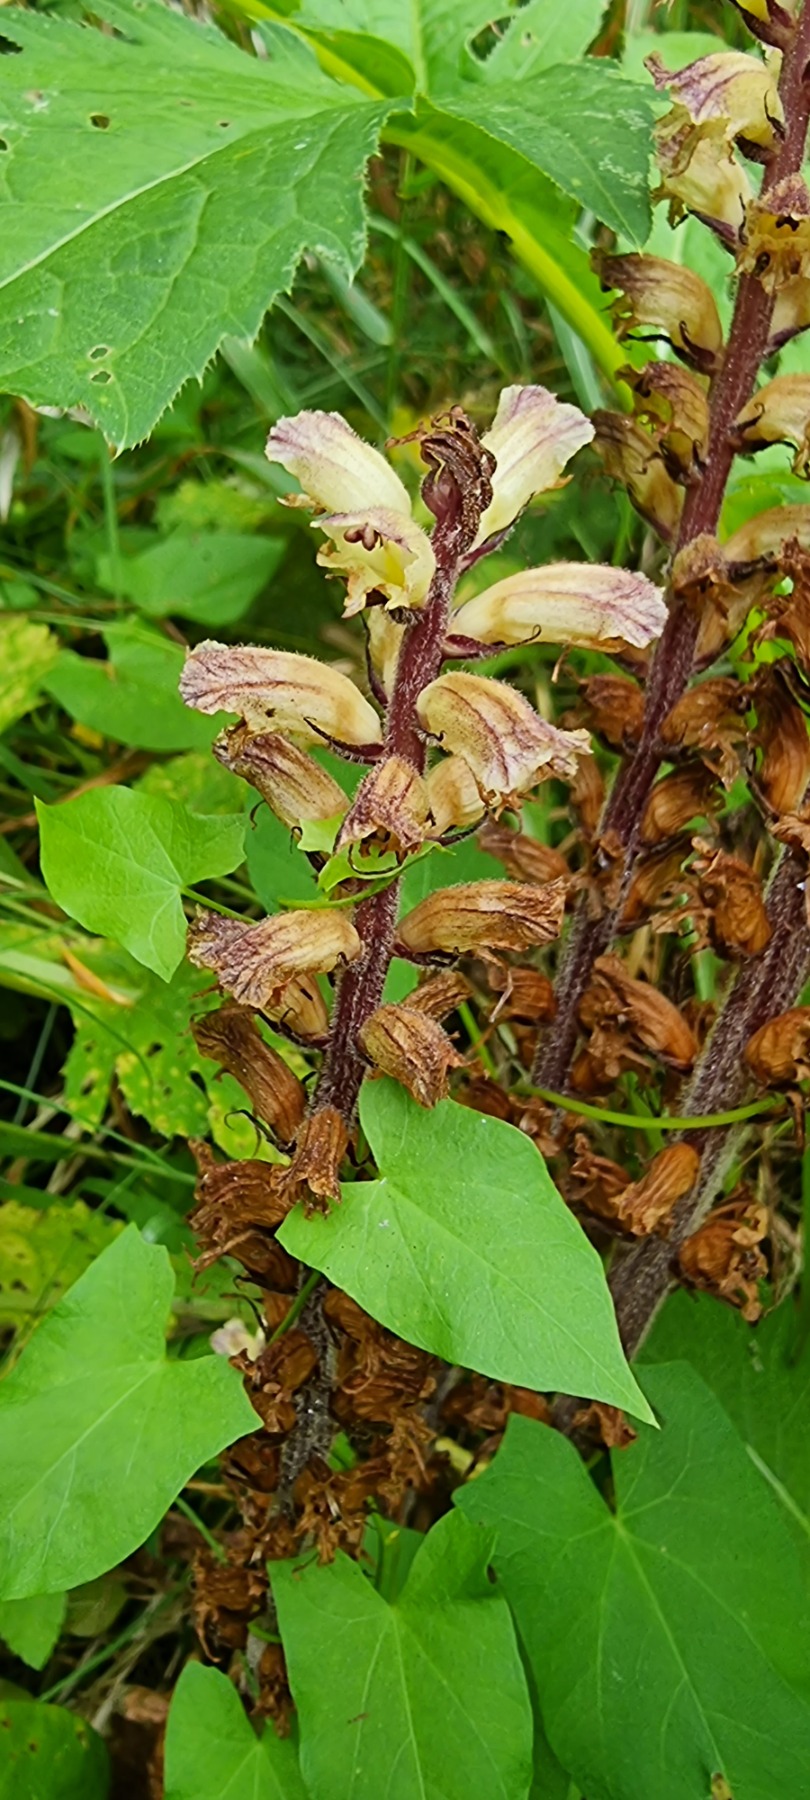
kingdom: Plantae
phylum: Tracheophyta
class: Magnoliopsida
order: Lamiales
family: Orobanchaceae
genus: Orobanche
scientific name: Orobanche reticulata
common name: Tidsel-gyvelkvæler
